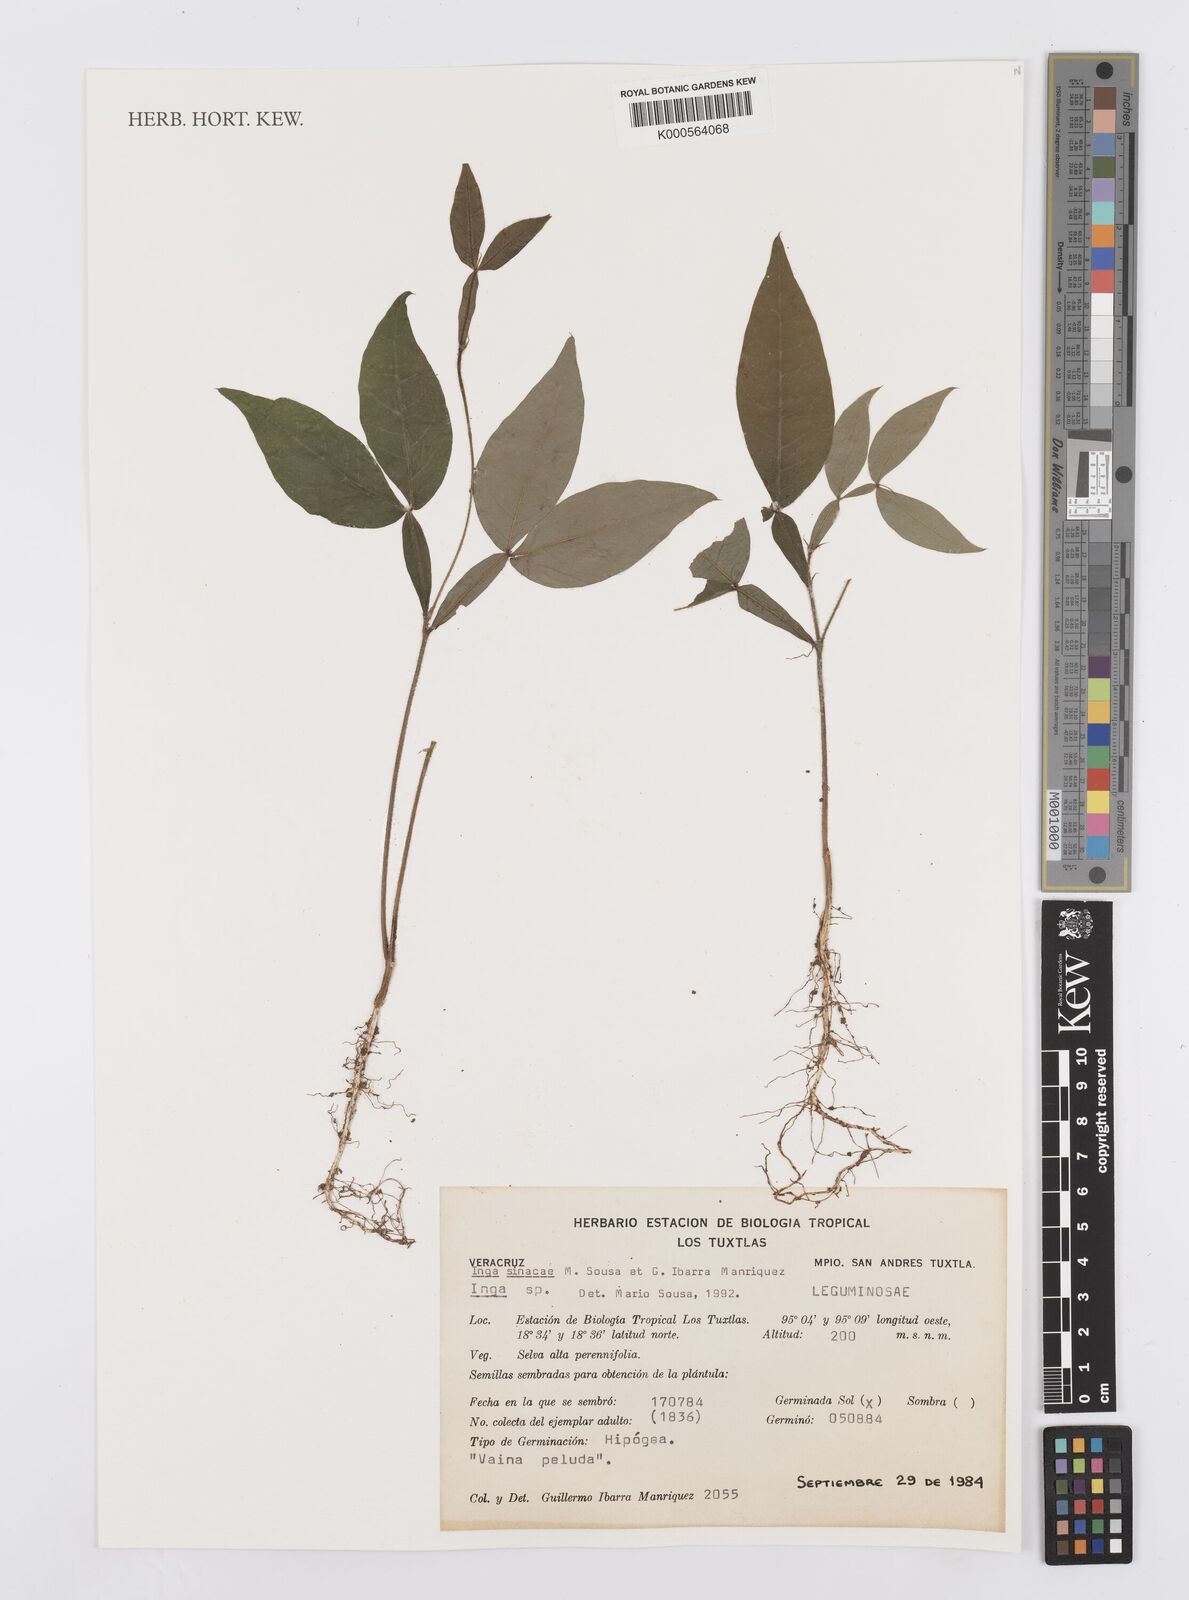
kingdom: Plantae
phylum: Tracheophyta
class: Magnoliopsida
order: Fabales
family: Fabaceae
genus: Inga
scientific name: Inga sinacae
